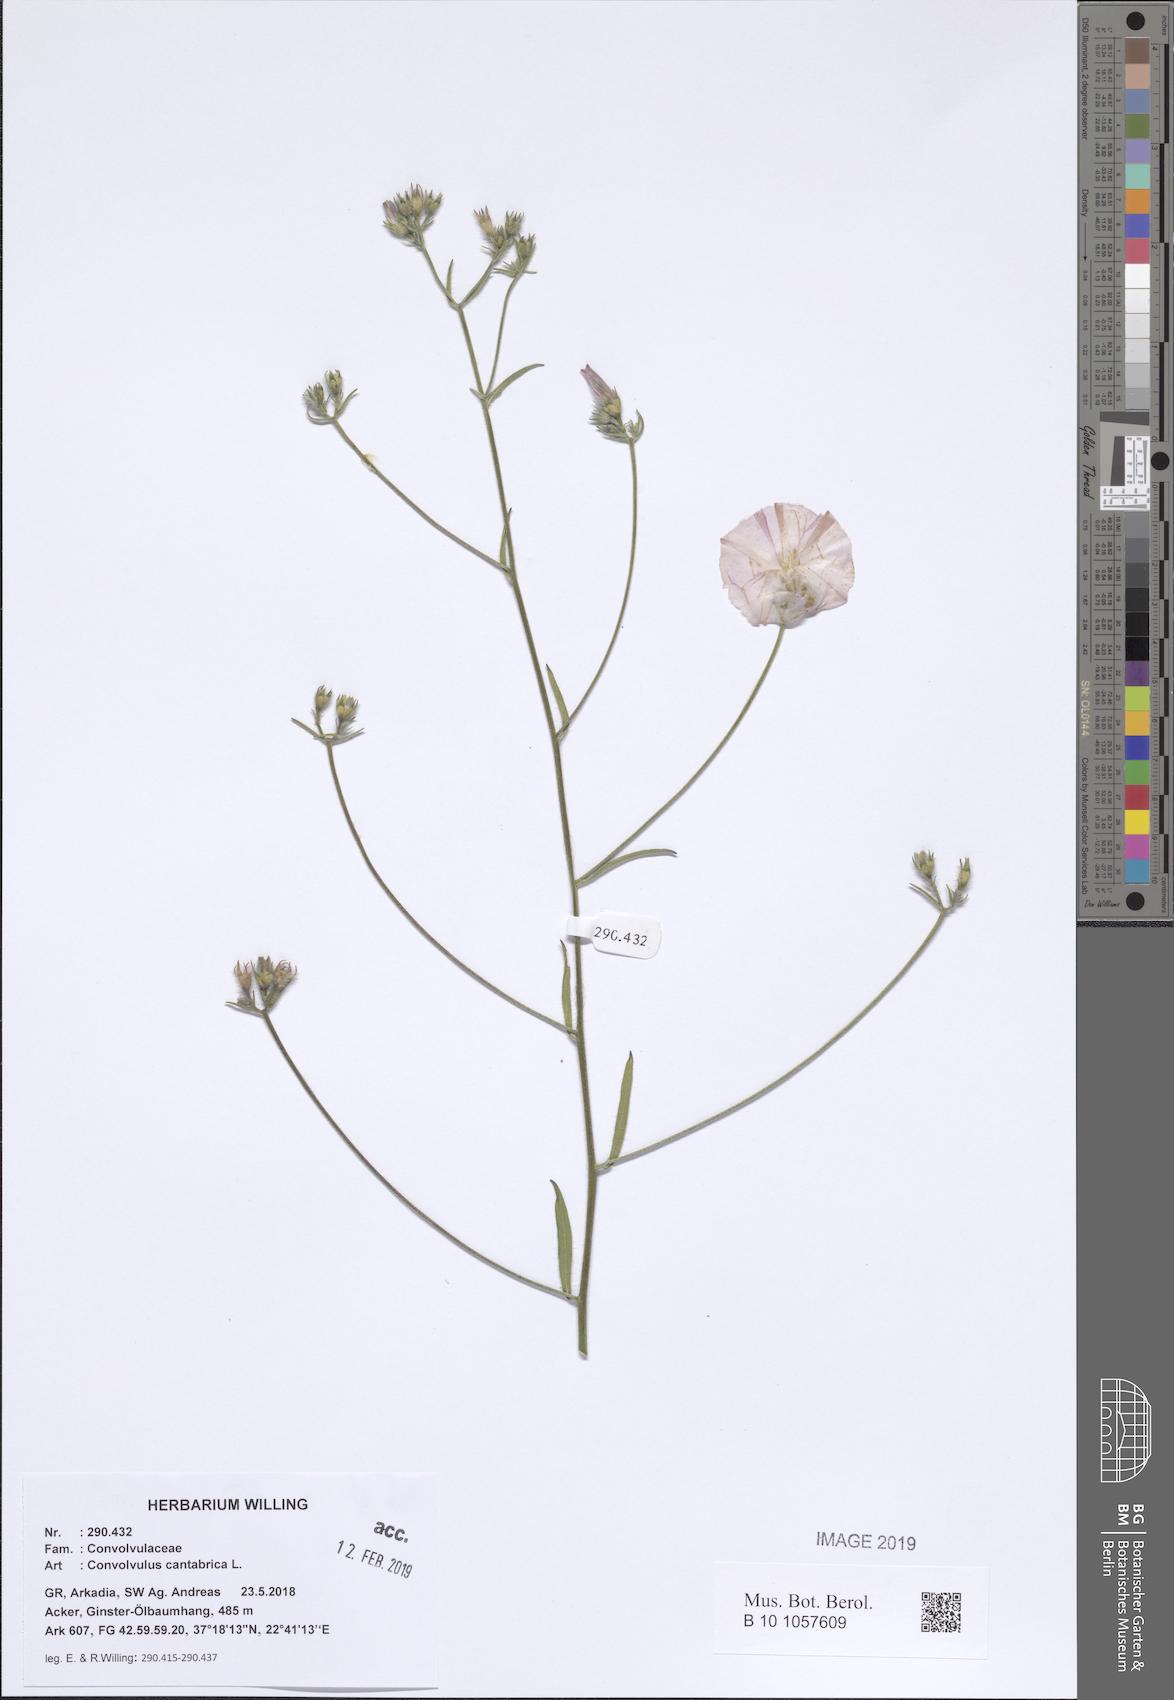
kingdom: Plantae
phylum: Tracheophyta
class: Magnoliopsida
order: Solanales
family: Convolvulaceae
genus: Convolvulus
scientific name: Convolvulus cantabrica
